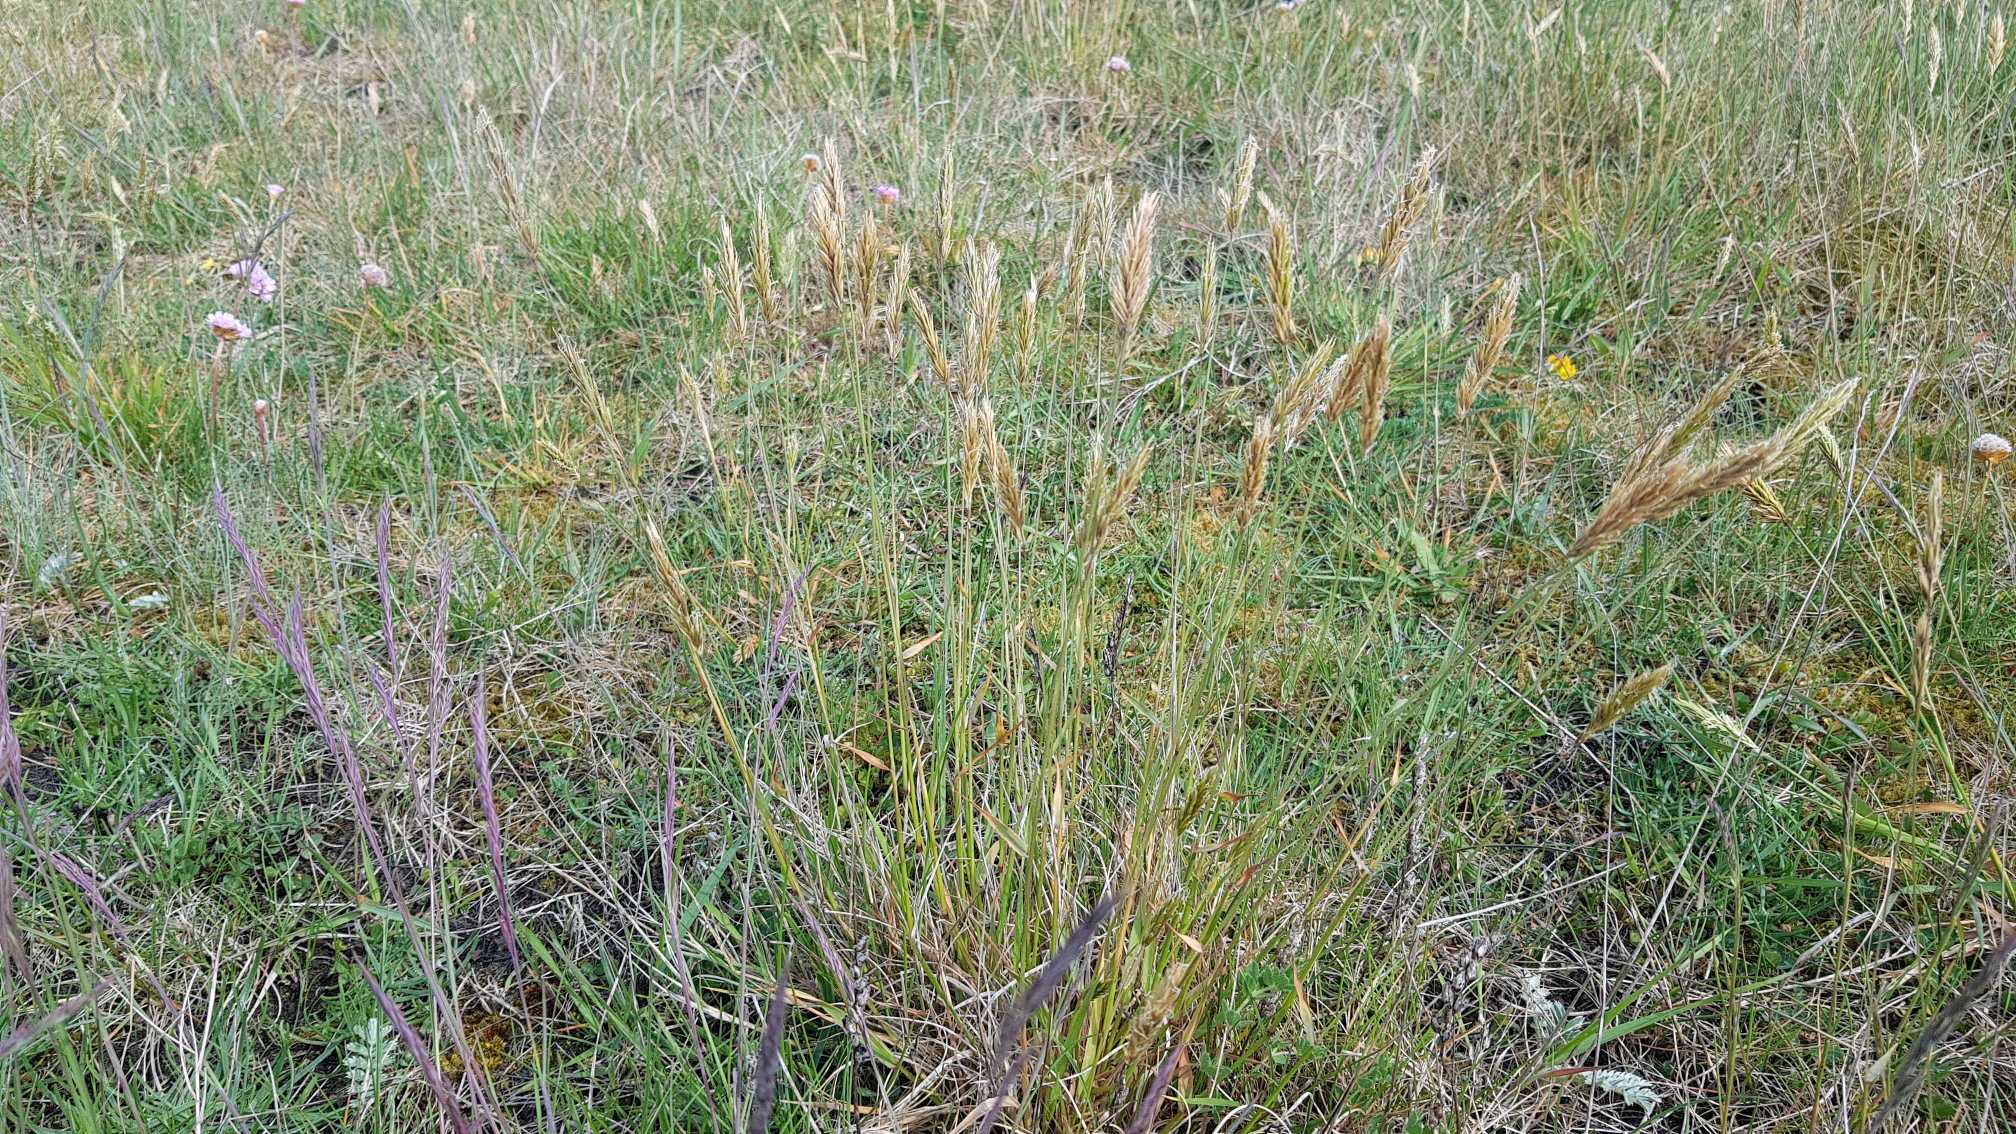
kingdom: Plantae
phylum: Tracheophyta
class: Liliopsida
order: Poales
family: Poaceae
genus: Anthoxanthum
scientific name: Anthoxanthum odoratum
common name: Vellugtende gulaks
